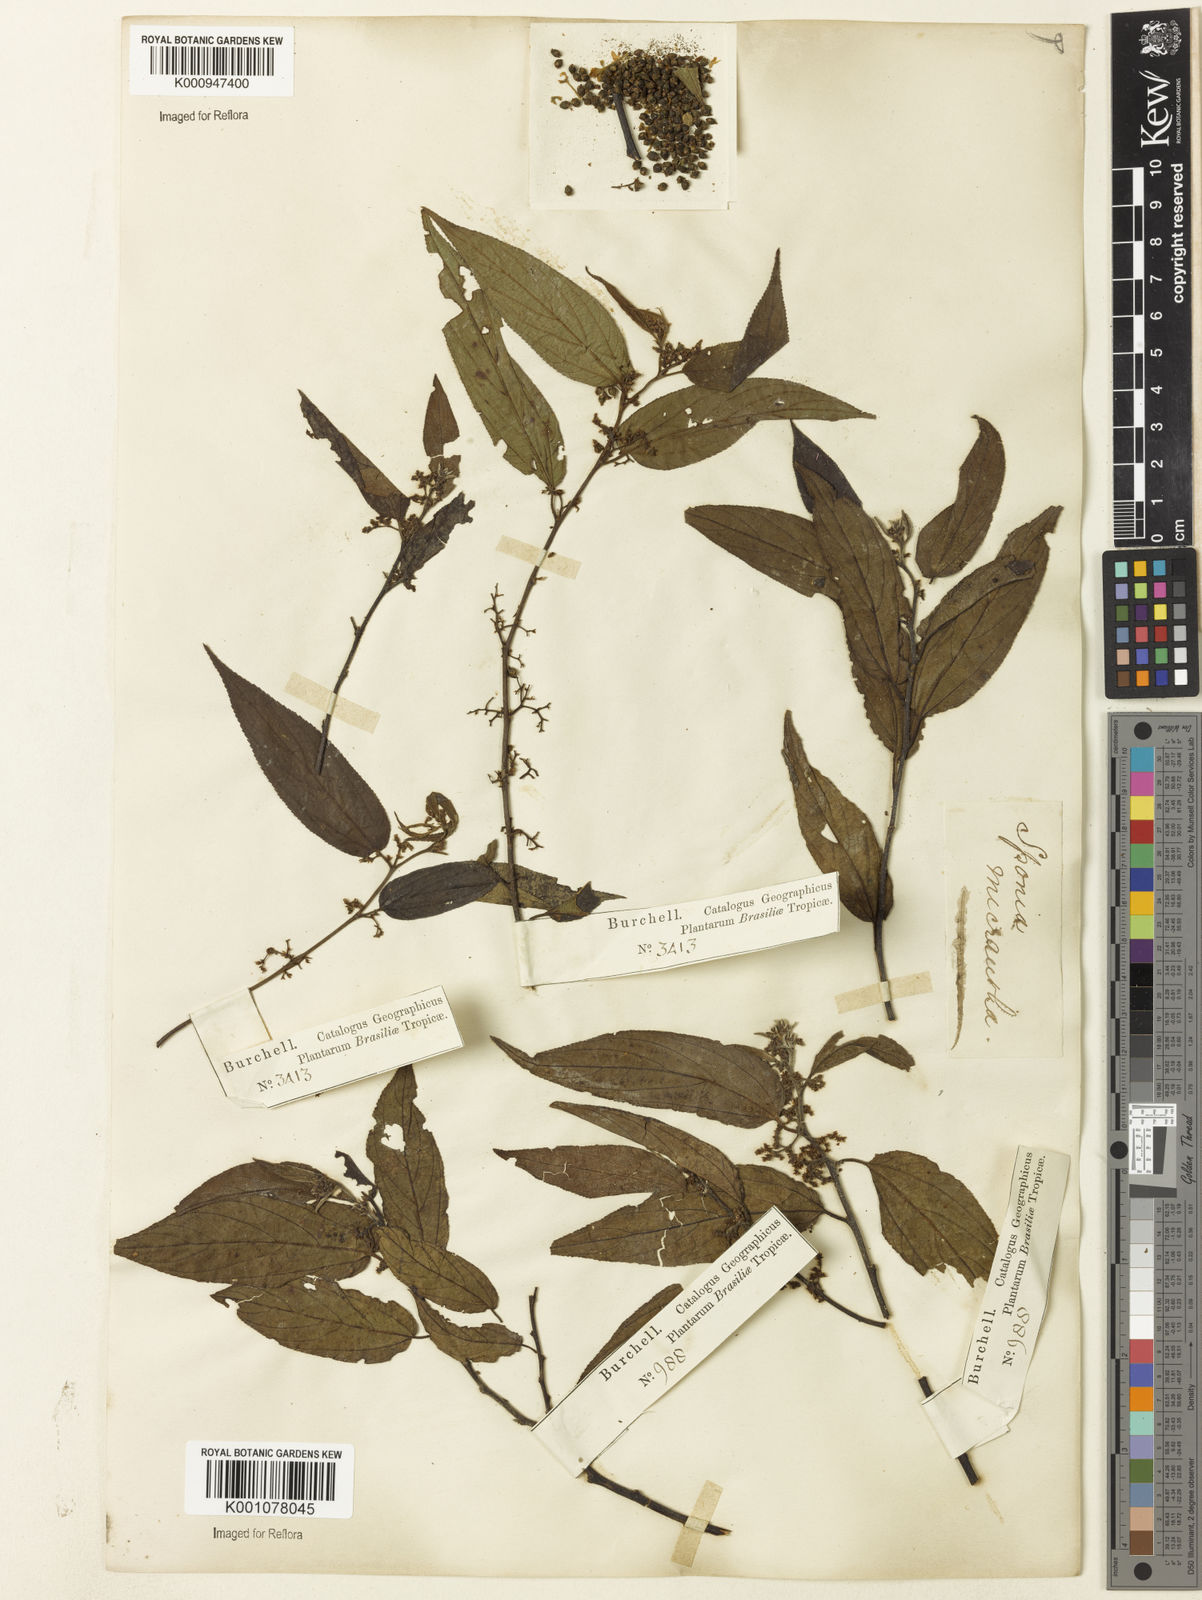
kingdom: Plantae
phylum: Tracheophyta
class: Magnoliopsida
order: Rosales
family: Cannabaceae
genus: Trema
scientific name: Trema micranthum
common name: Jamaican nettletree
